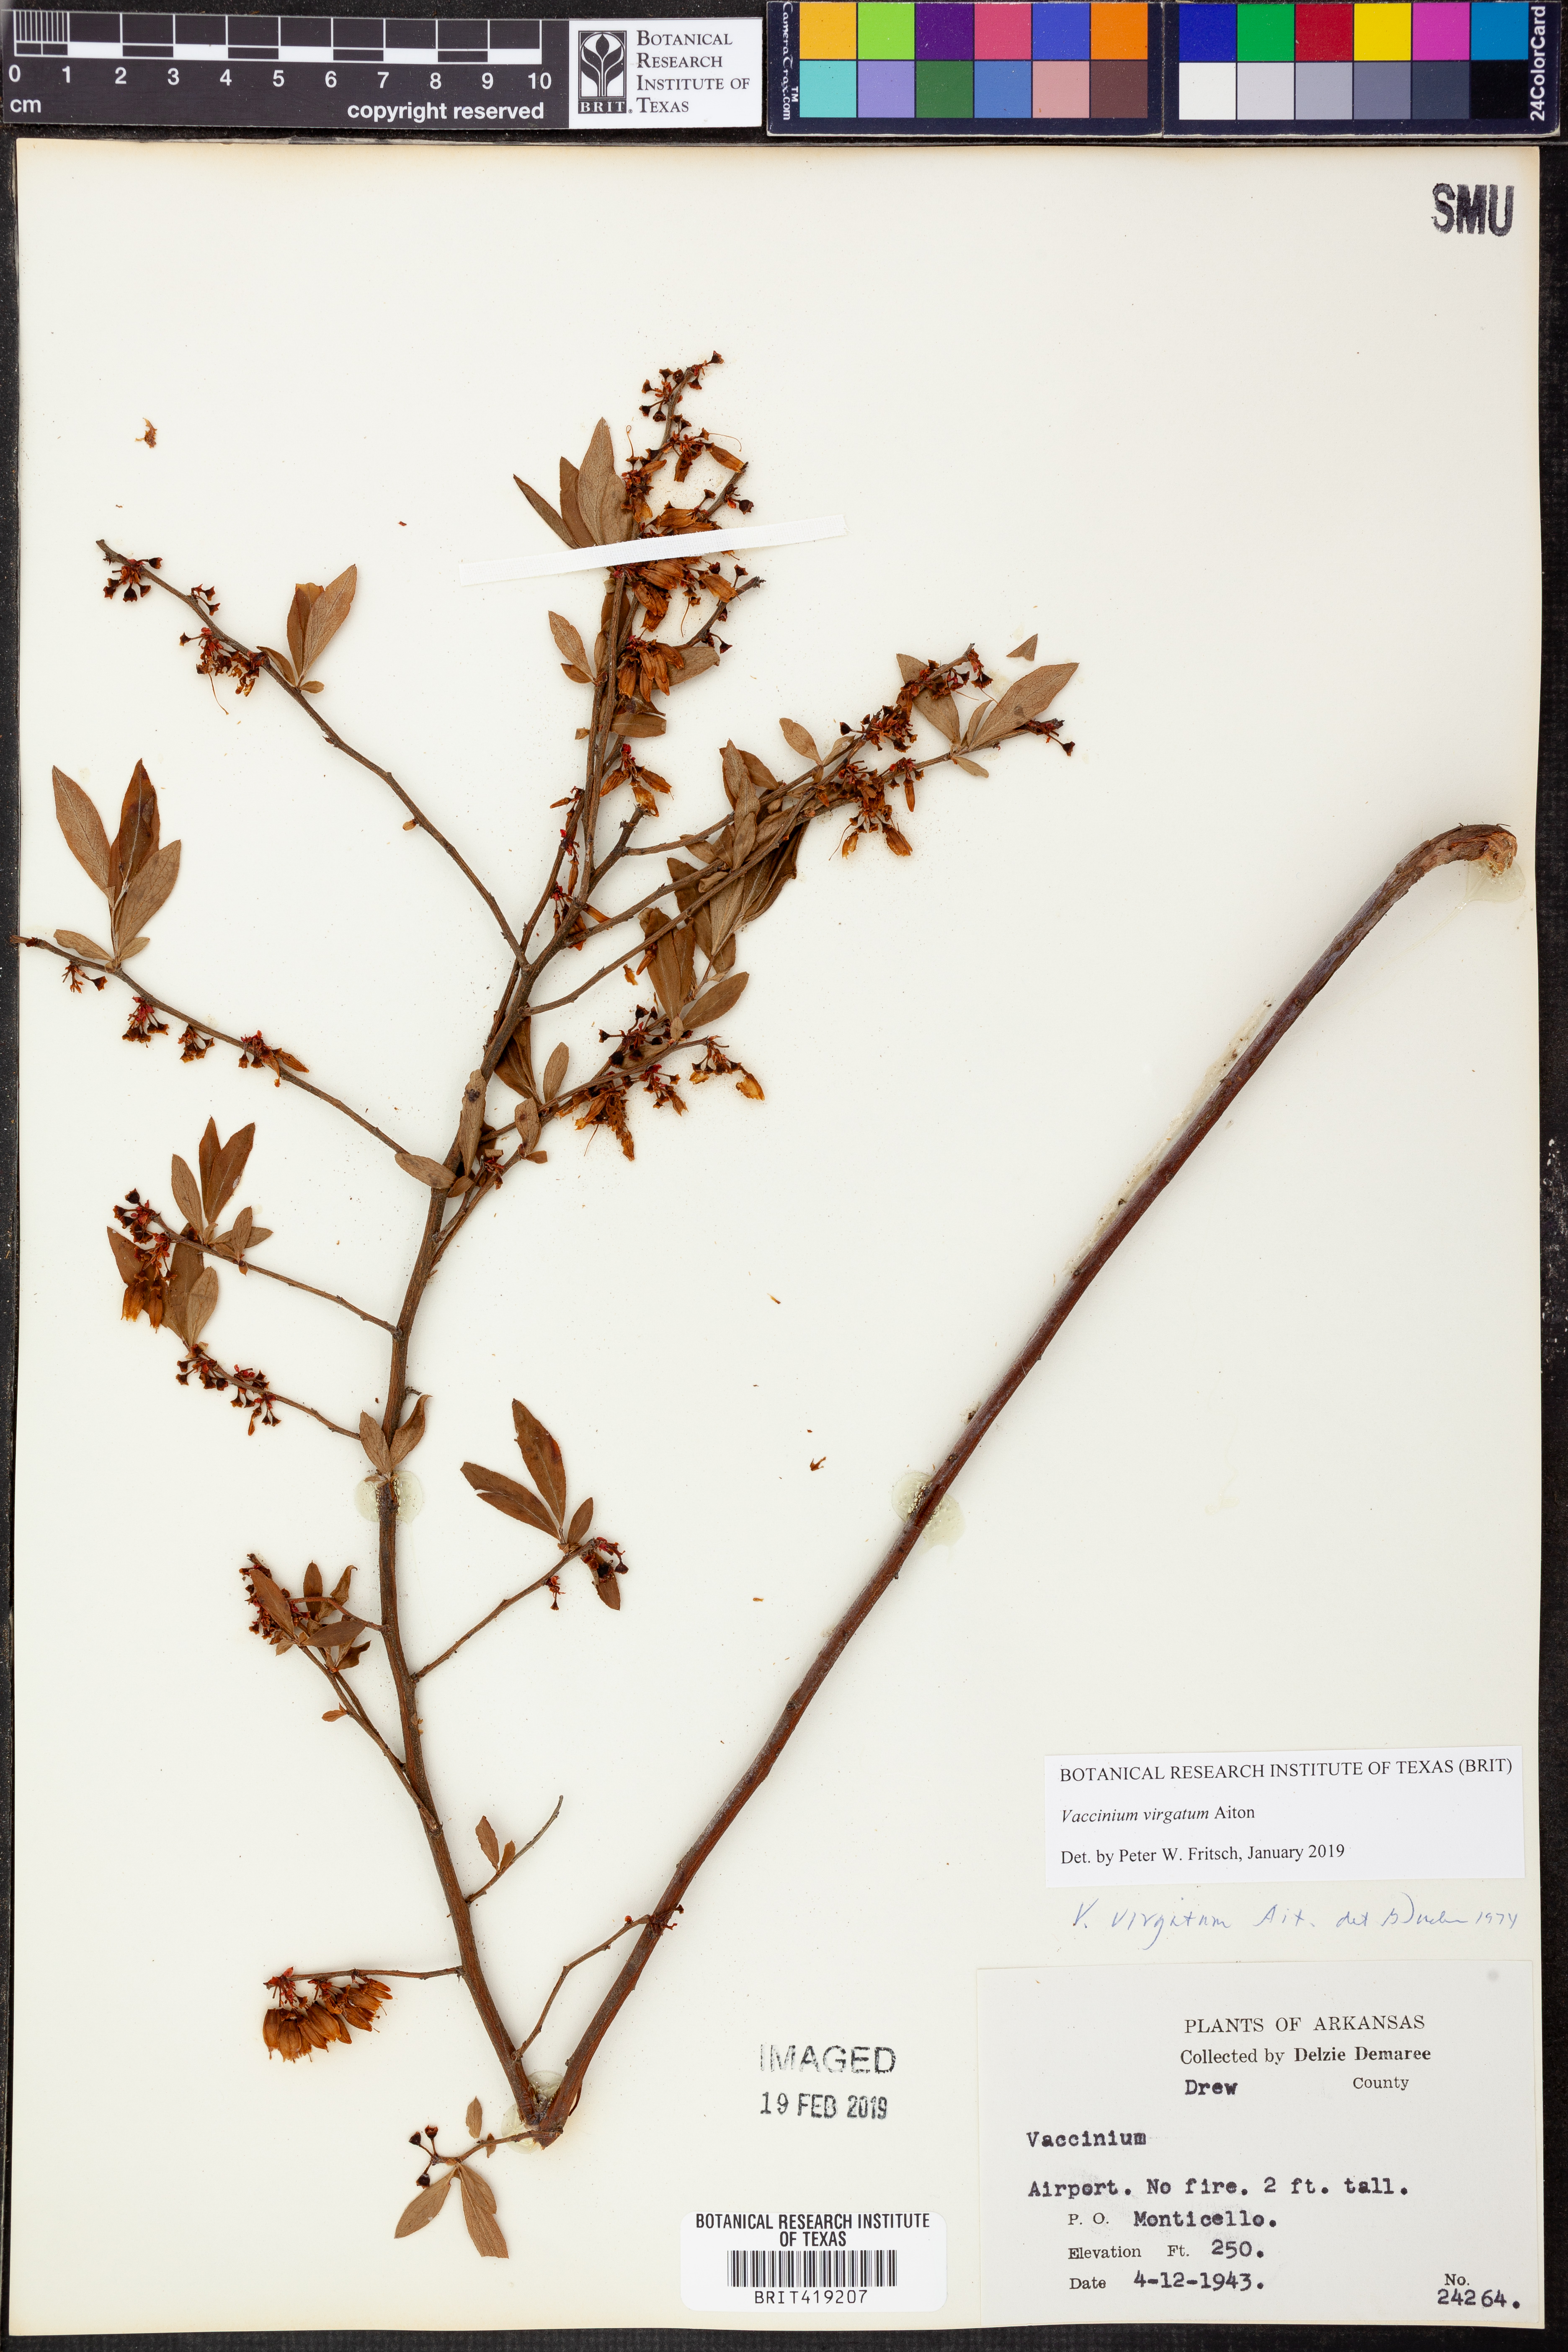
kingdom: Plantae
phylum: Tracheophyta
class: Magnoliopsida
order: Ericales
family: Ericaceae
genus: Vaccinium
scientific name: Vaccinium corymbosum
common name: Blueberry
